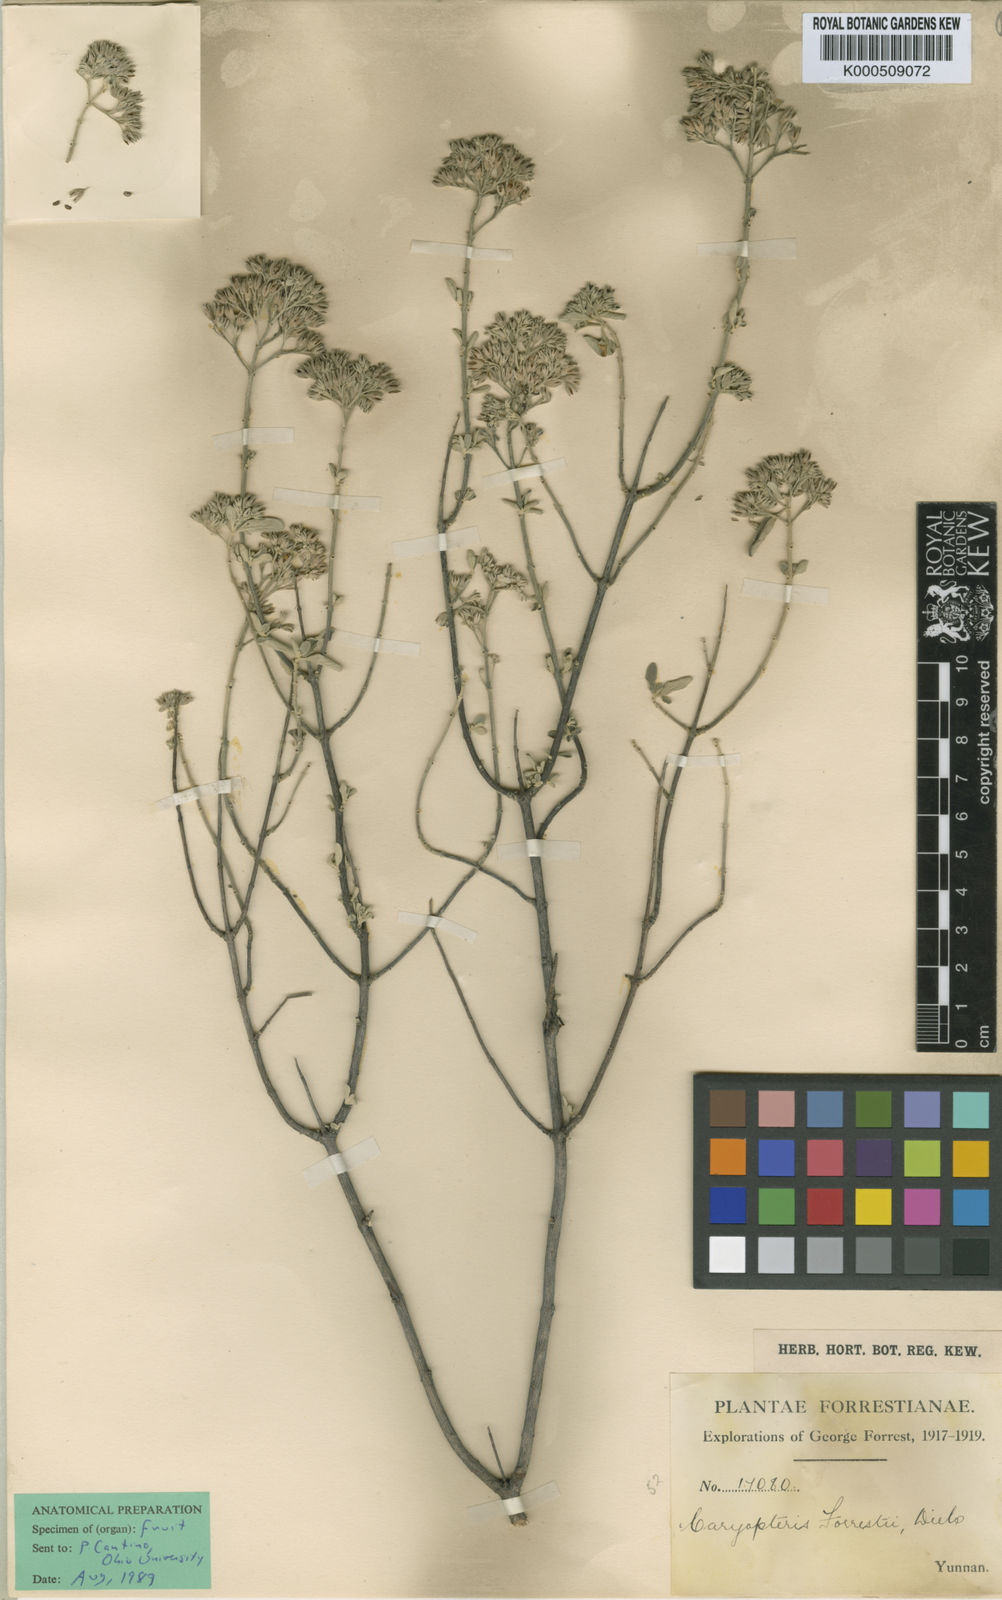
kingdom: Plantae
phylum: Tracheophyta
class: Magnoliopsida
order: Lamiales
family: Lamiaceae
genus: Caryopteris
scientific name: Caryopteris forrestii
